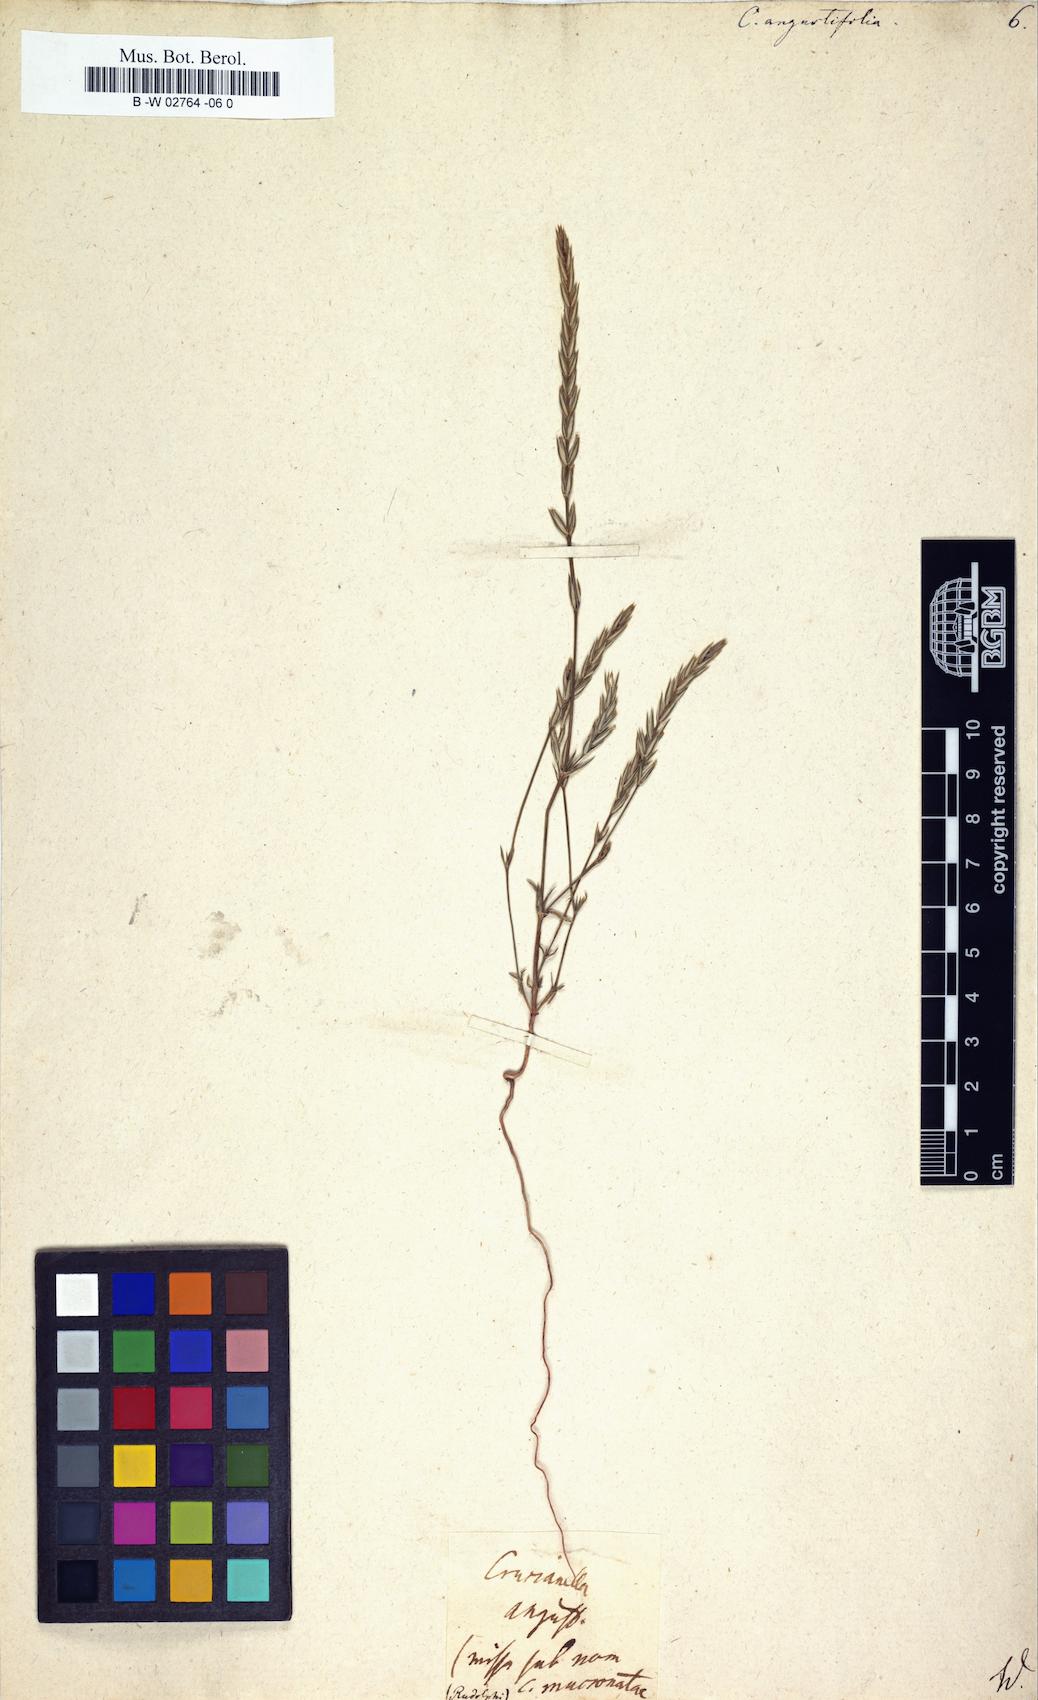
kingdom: Plantae
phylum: Tracheophyta
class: Magnoliopsida
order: Gentianales
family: Rubiaceae
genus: Crucianella
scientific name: Crucianella angustifolia
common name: Narrowleaf crucianella
